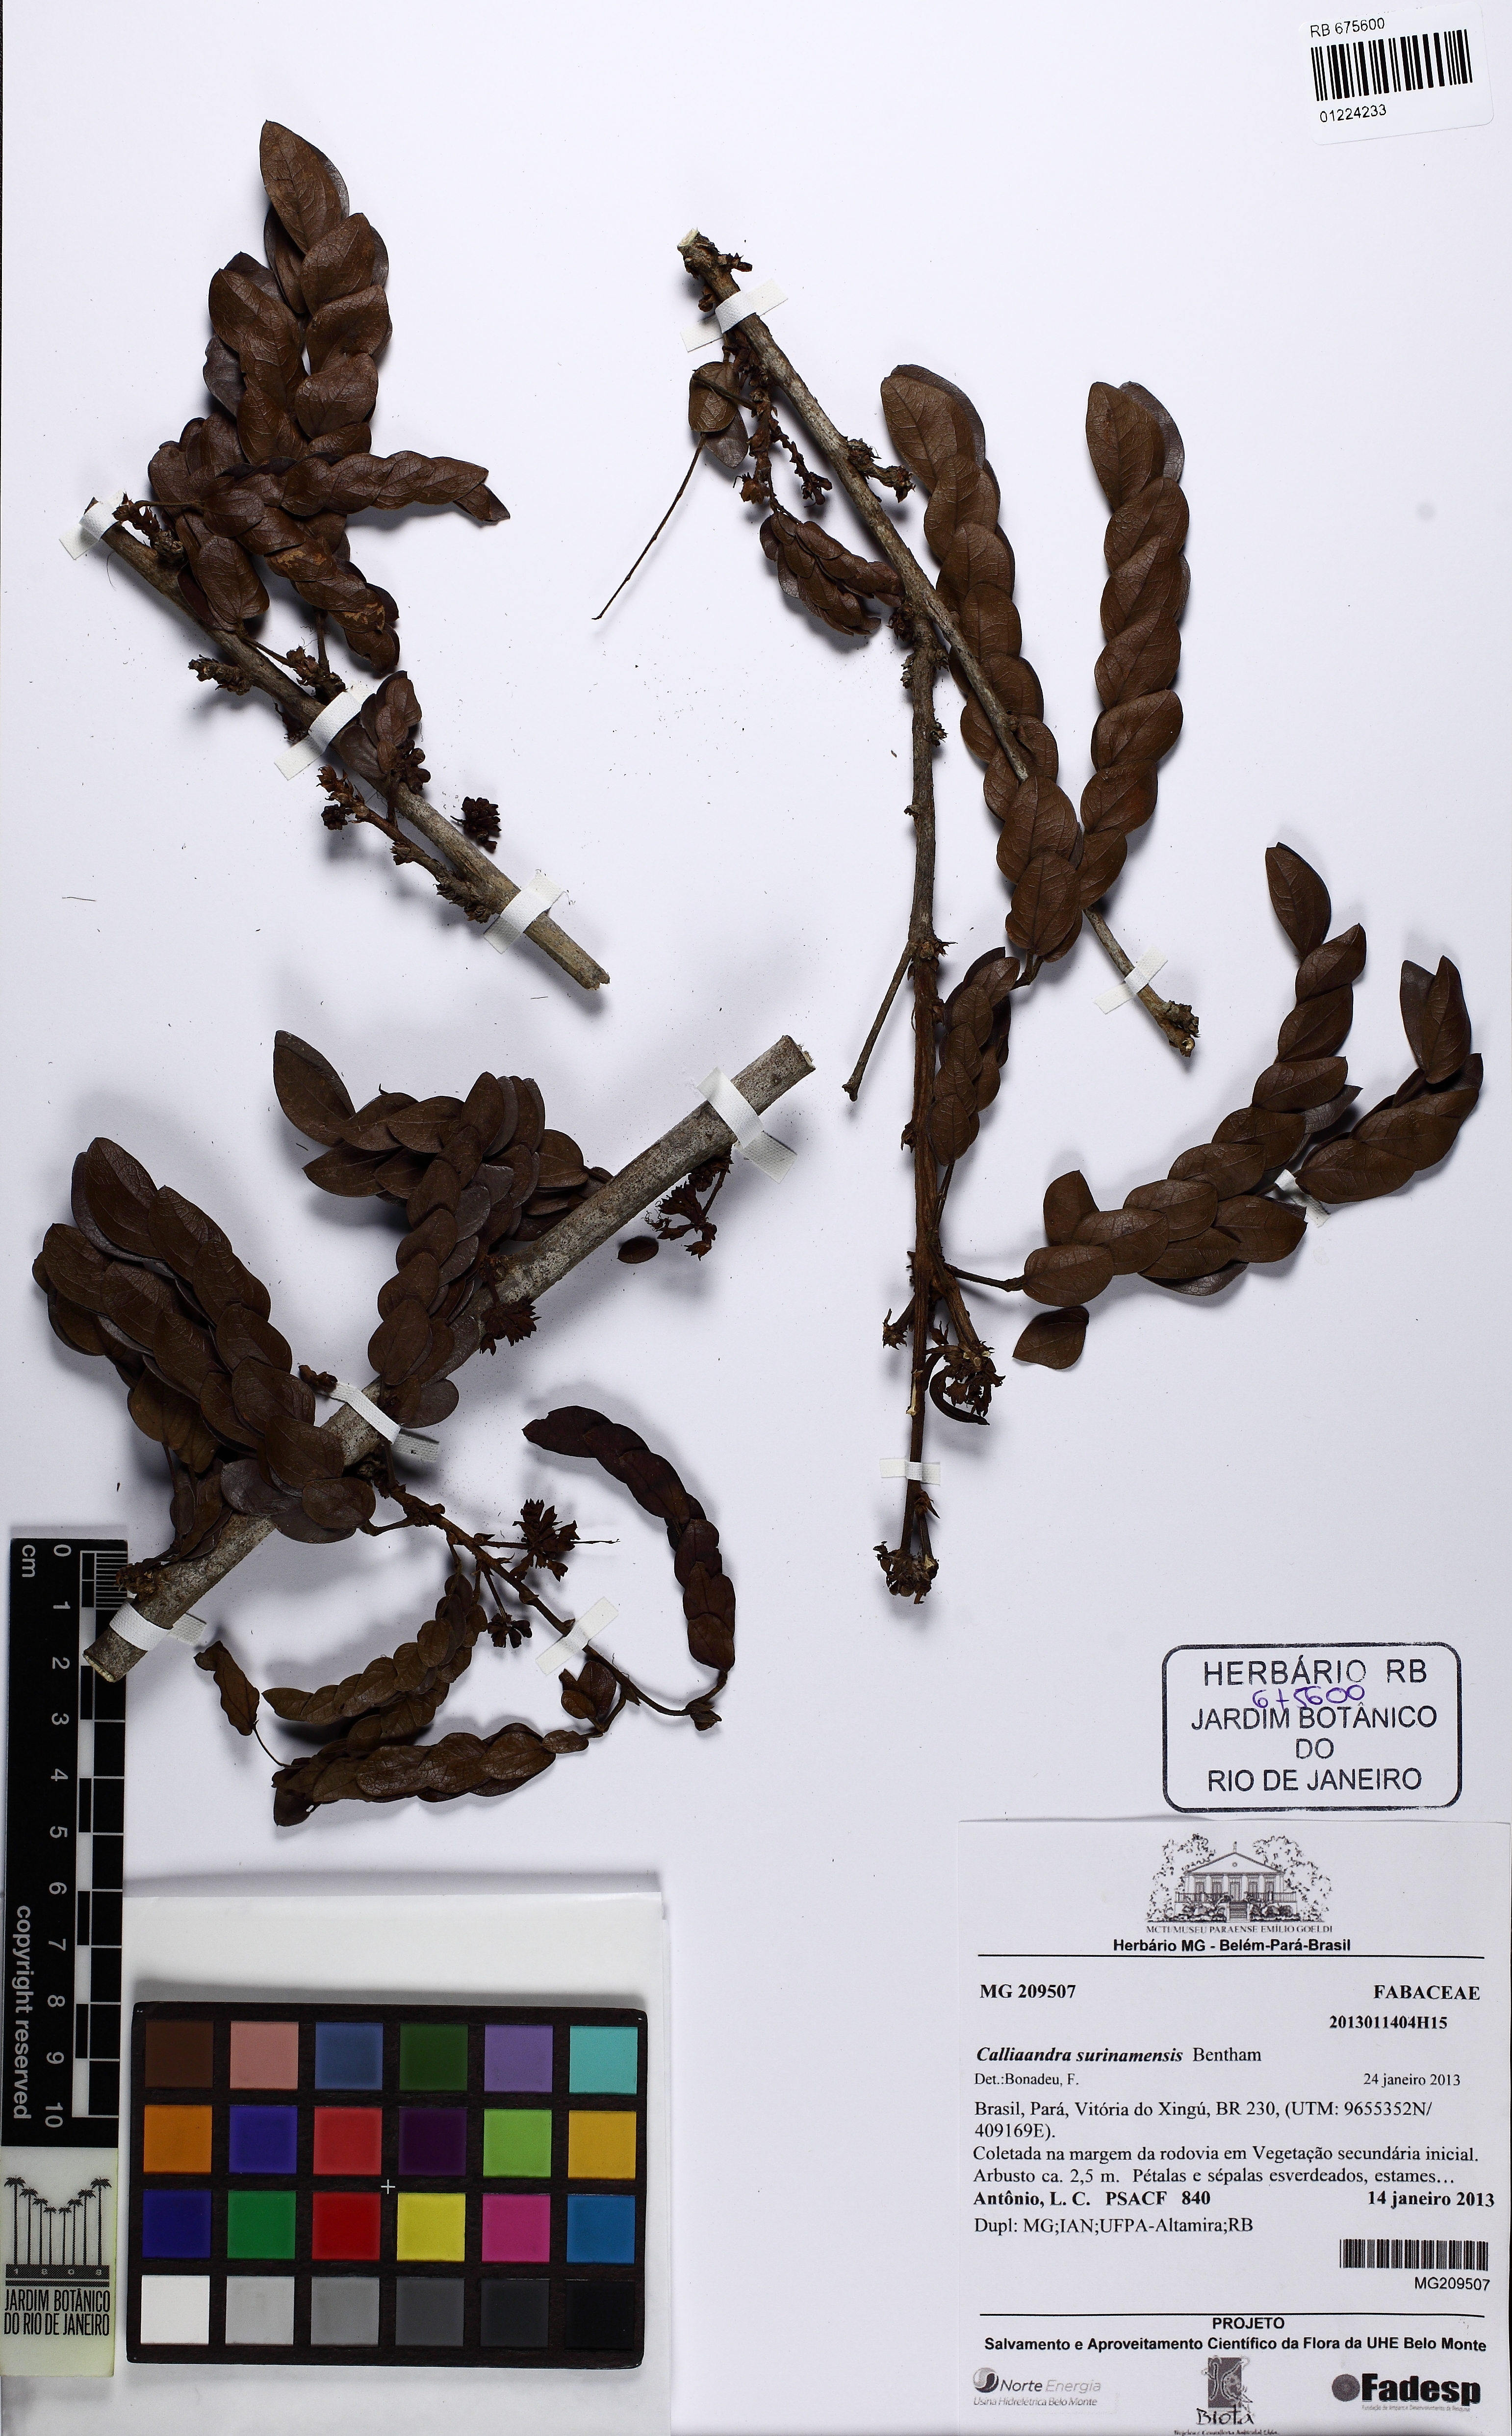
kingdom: Plantae
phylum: Tracheophyta
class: Magnoliopsida
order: Fabales
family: Fabaceae
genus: Calliandra
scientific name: Calliandra surinamensis
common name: Pink powder puff
